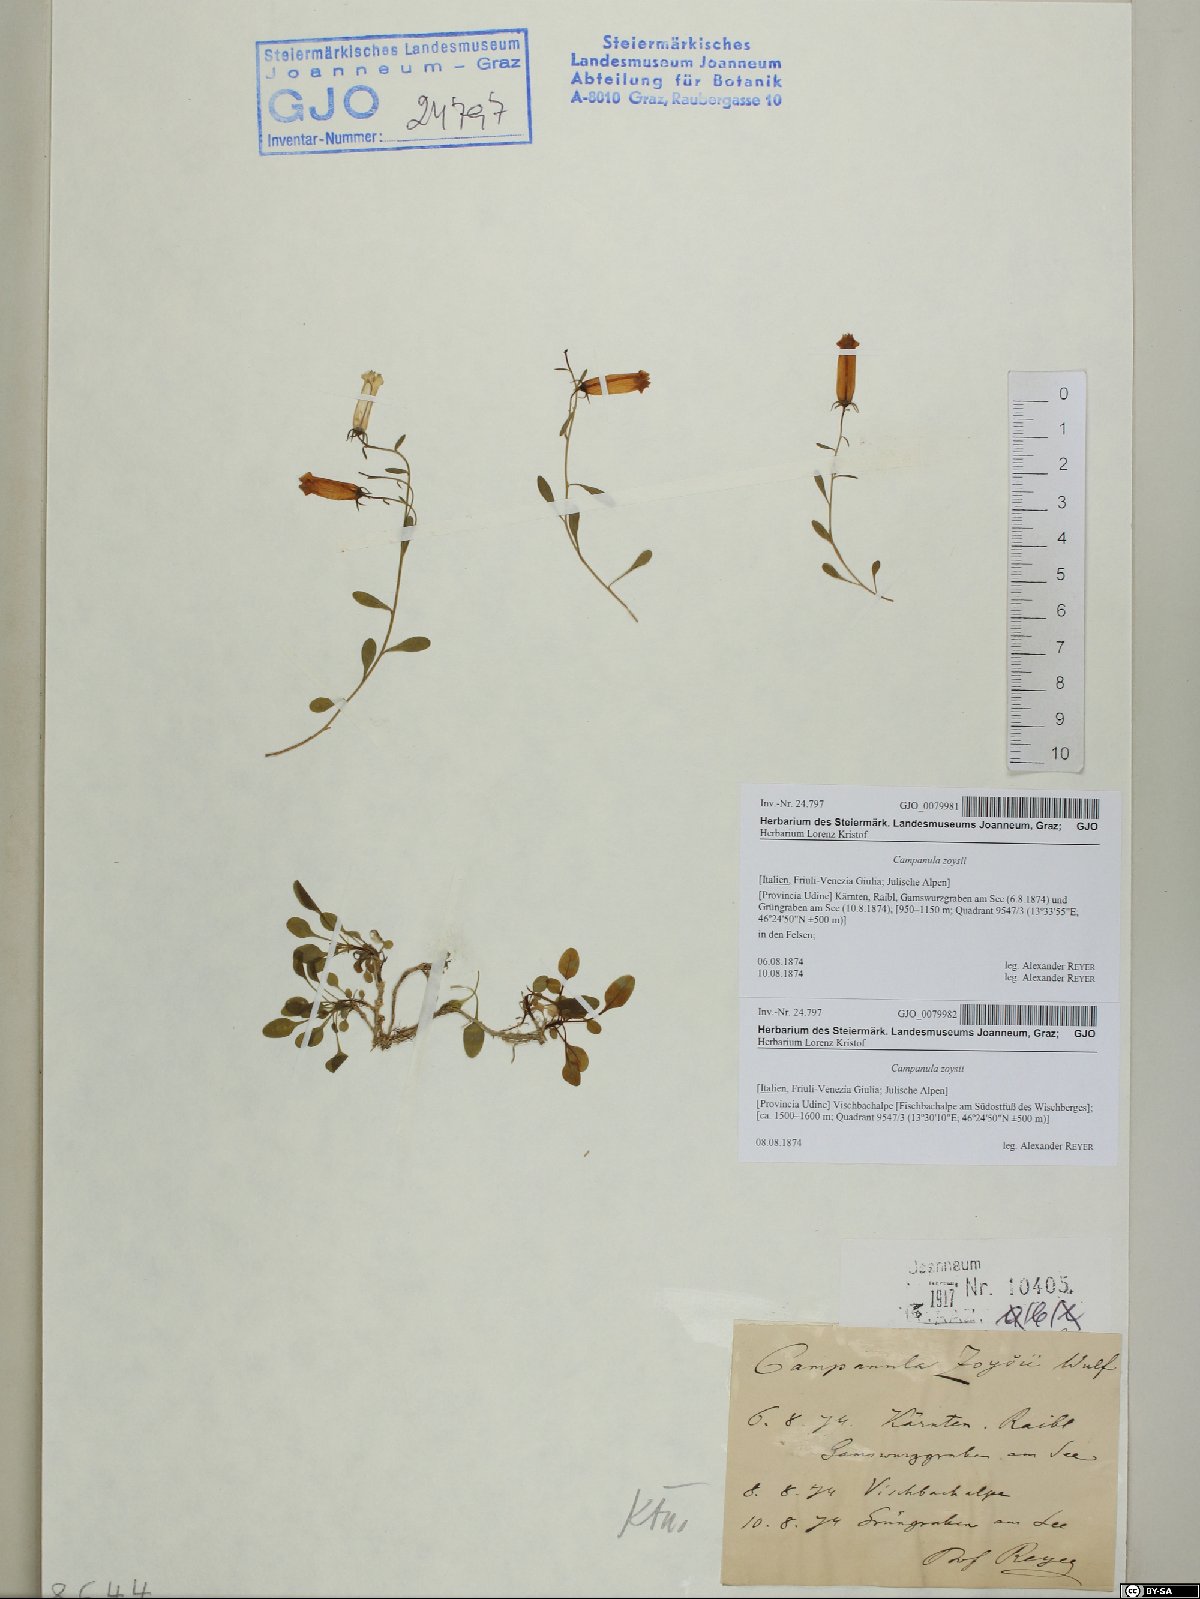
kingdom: Plantae
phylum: Tracheophyta
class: Magnoliopsida
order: Asterales
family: Campanulaceae
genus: Favratia
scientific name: Favratia zoysii
